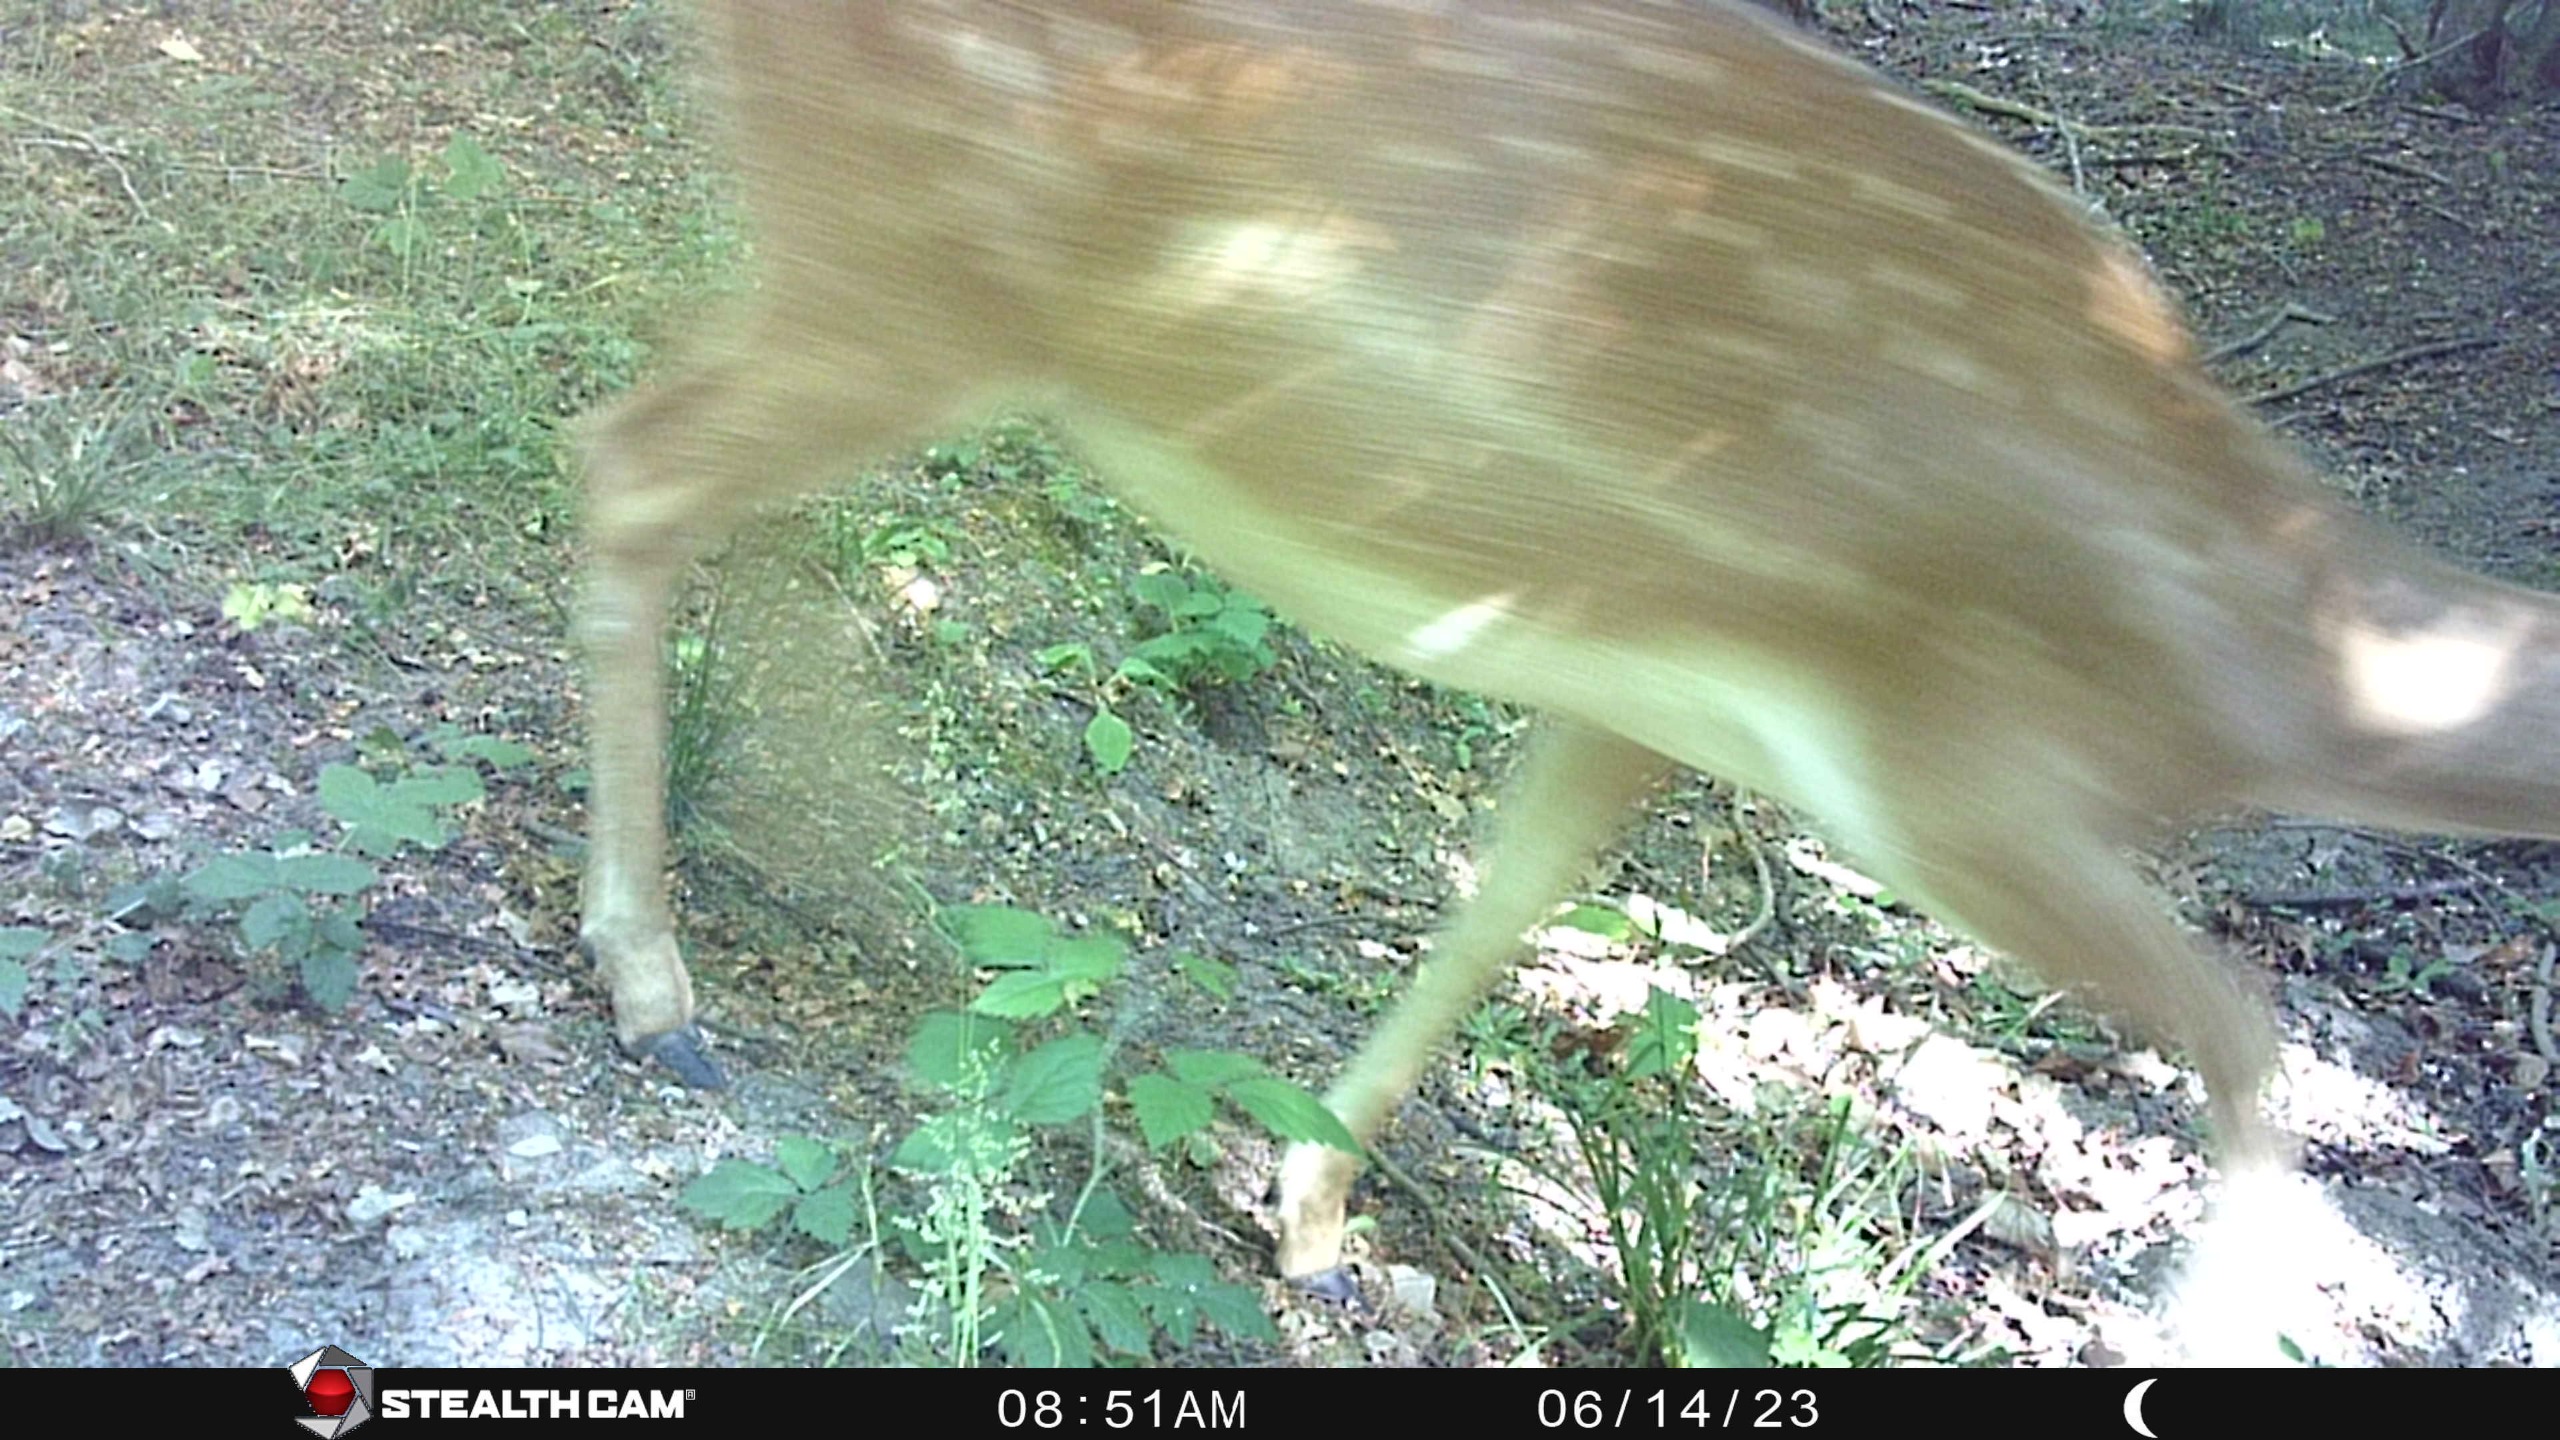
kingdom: Animalia
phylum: Chordata
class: Mammalia
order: Artiodactyla
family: Cervidae
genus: Dama
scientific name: Dama dama
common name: Dådyr
